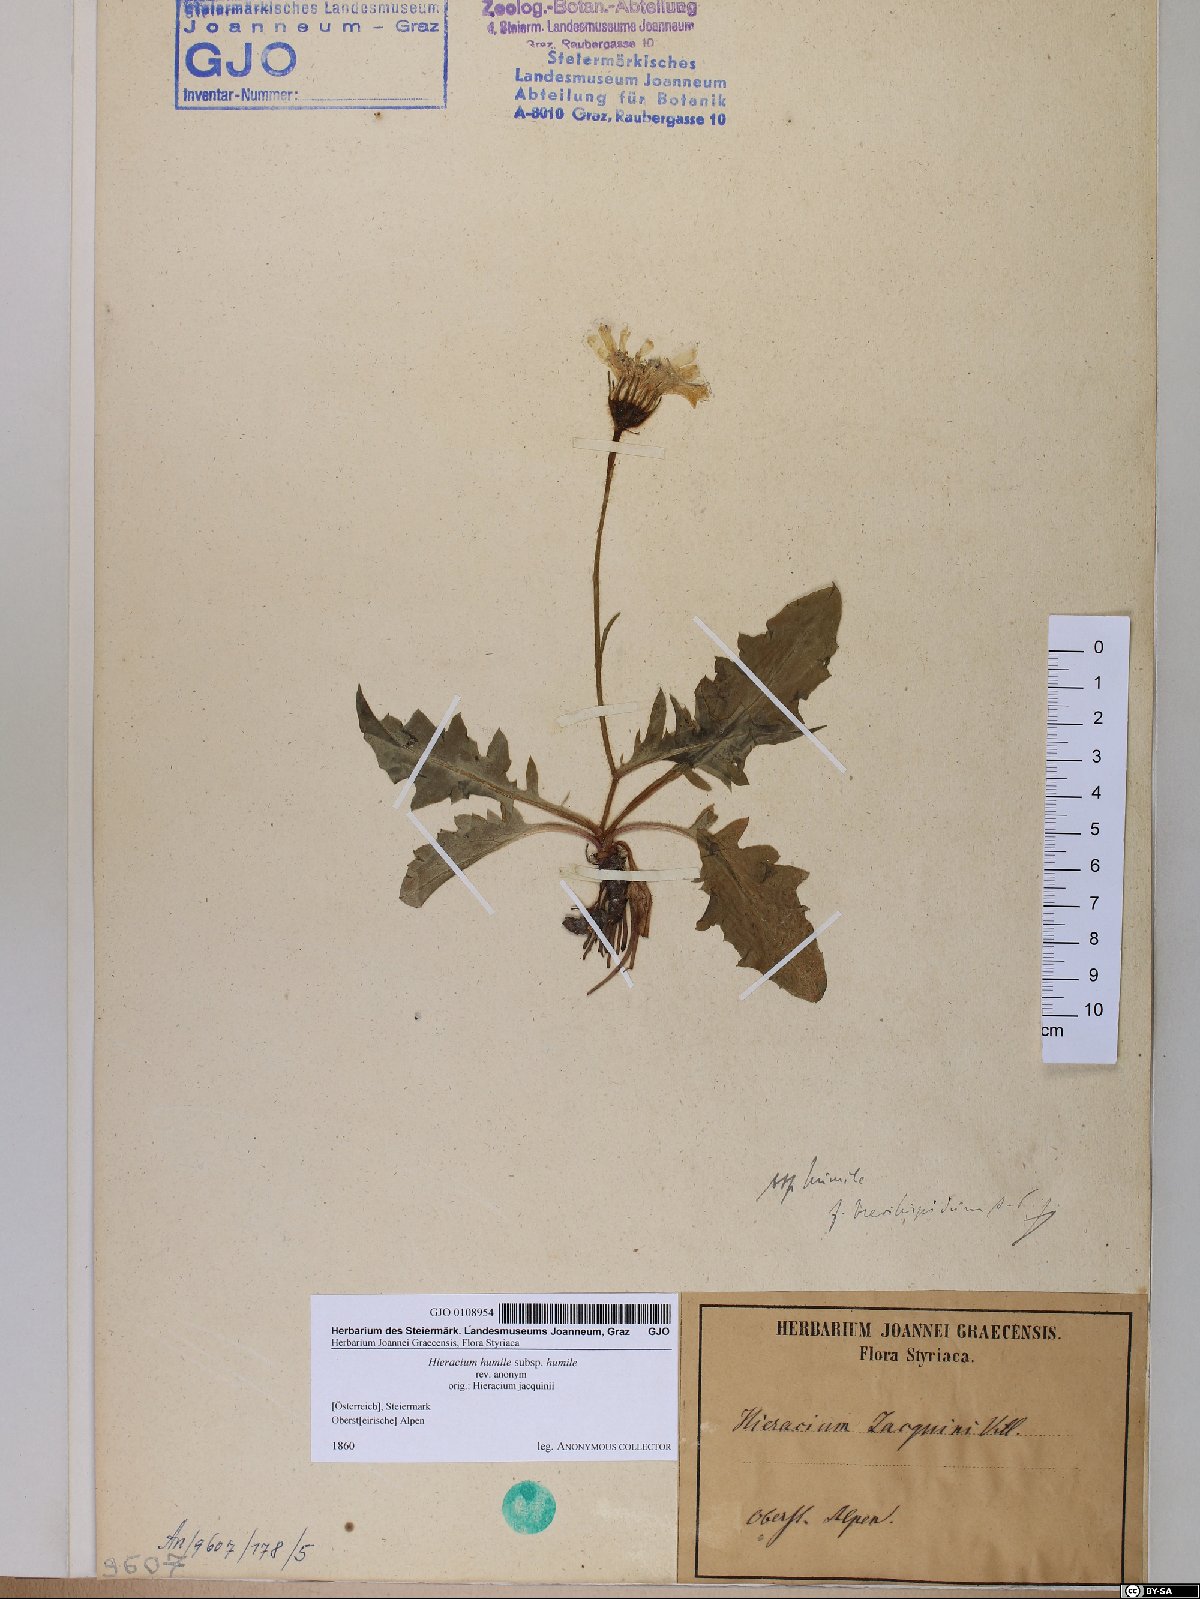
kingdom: Plantae
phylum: Tracheophyta
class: Magnoliopsida
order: Asterales
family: Asteraceae
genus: Hieracium
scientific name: Hieracium humile
